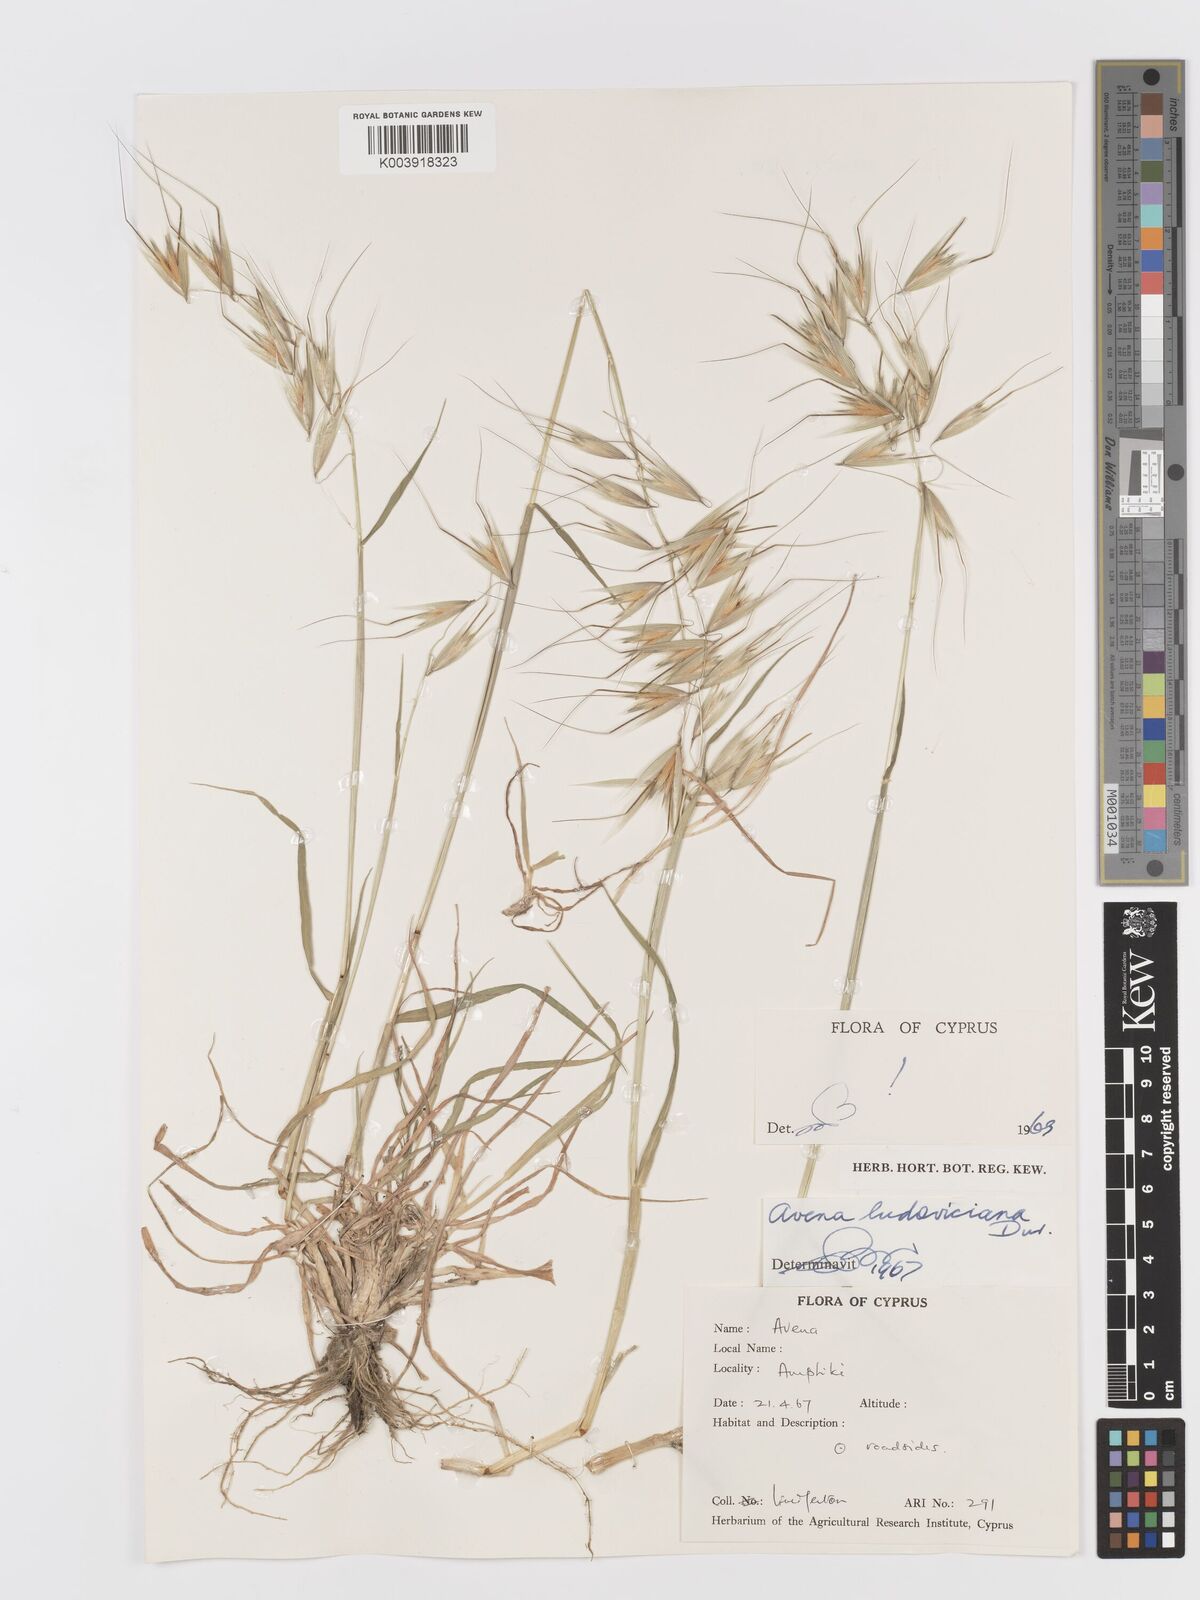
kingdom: Plantae
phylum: Tracheophyta
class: Liliopsida
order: Poales
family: Poaceae
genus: Avena
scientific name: Avena sterilis
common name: Animated oat
